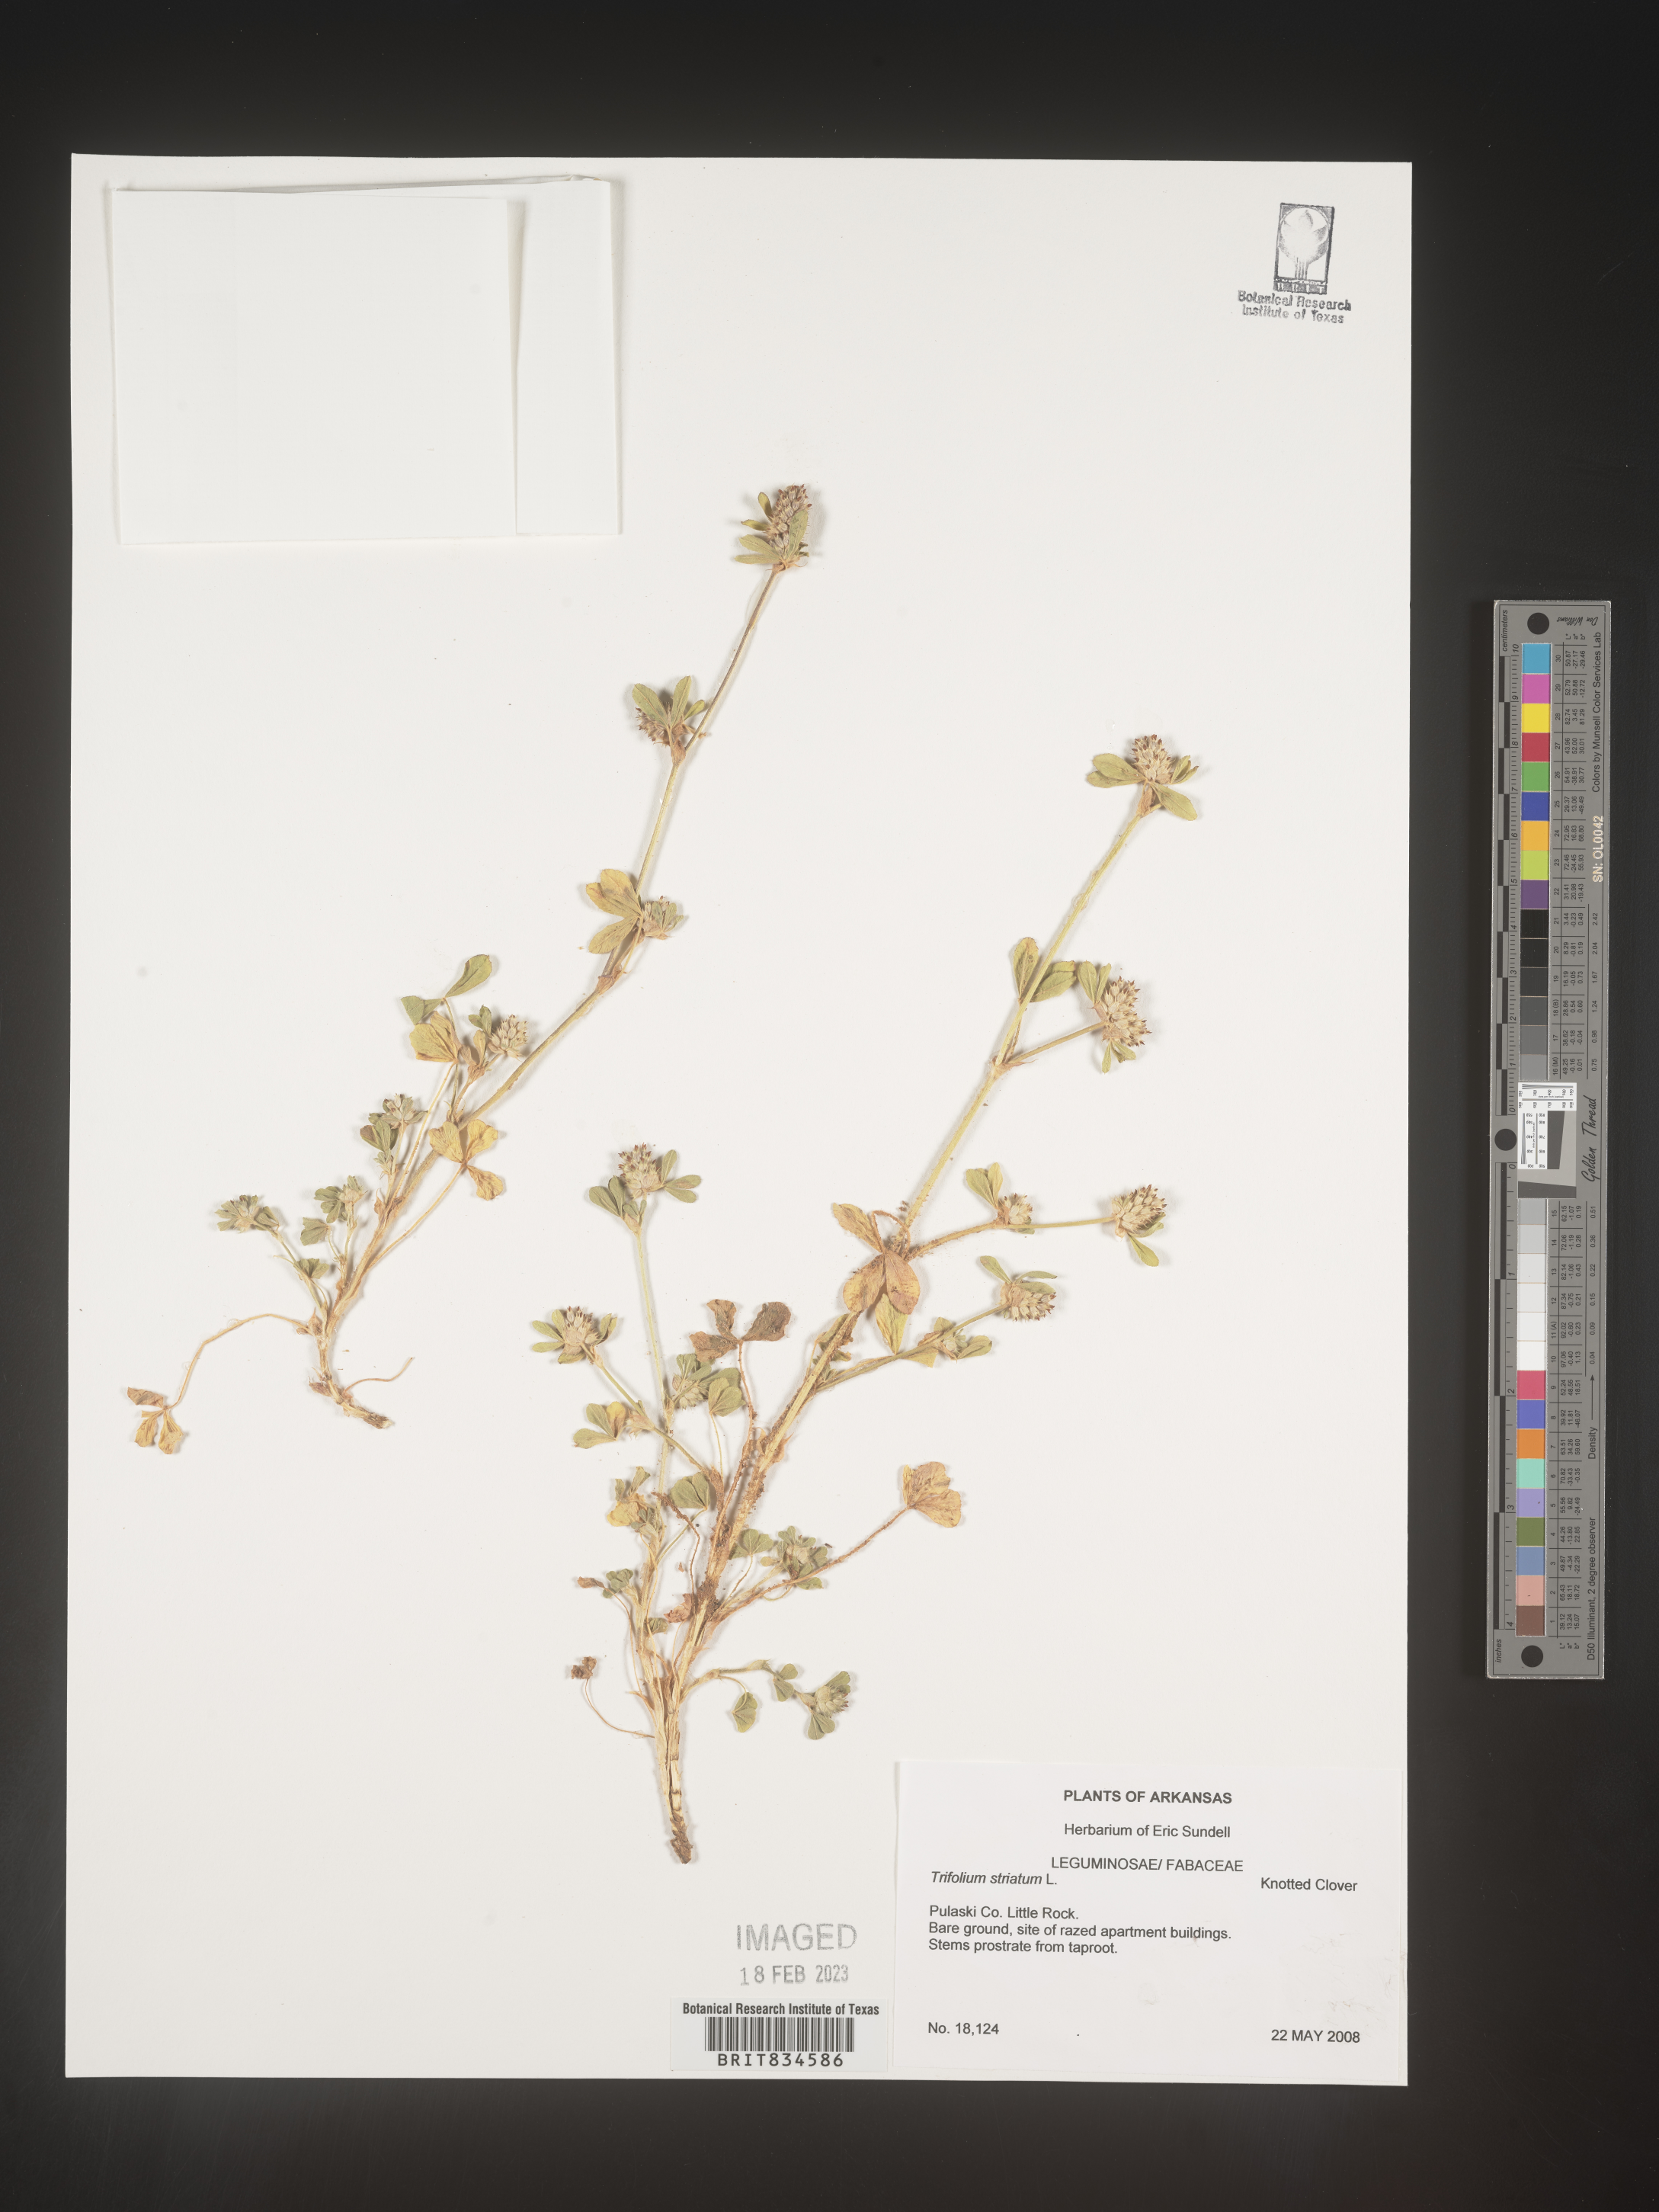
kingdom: Plantae
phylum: Tracheophyta
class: Magnoliopsida
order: Fabales
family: Fabaceae
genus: Trifolium
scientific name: Trifolium
